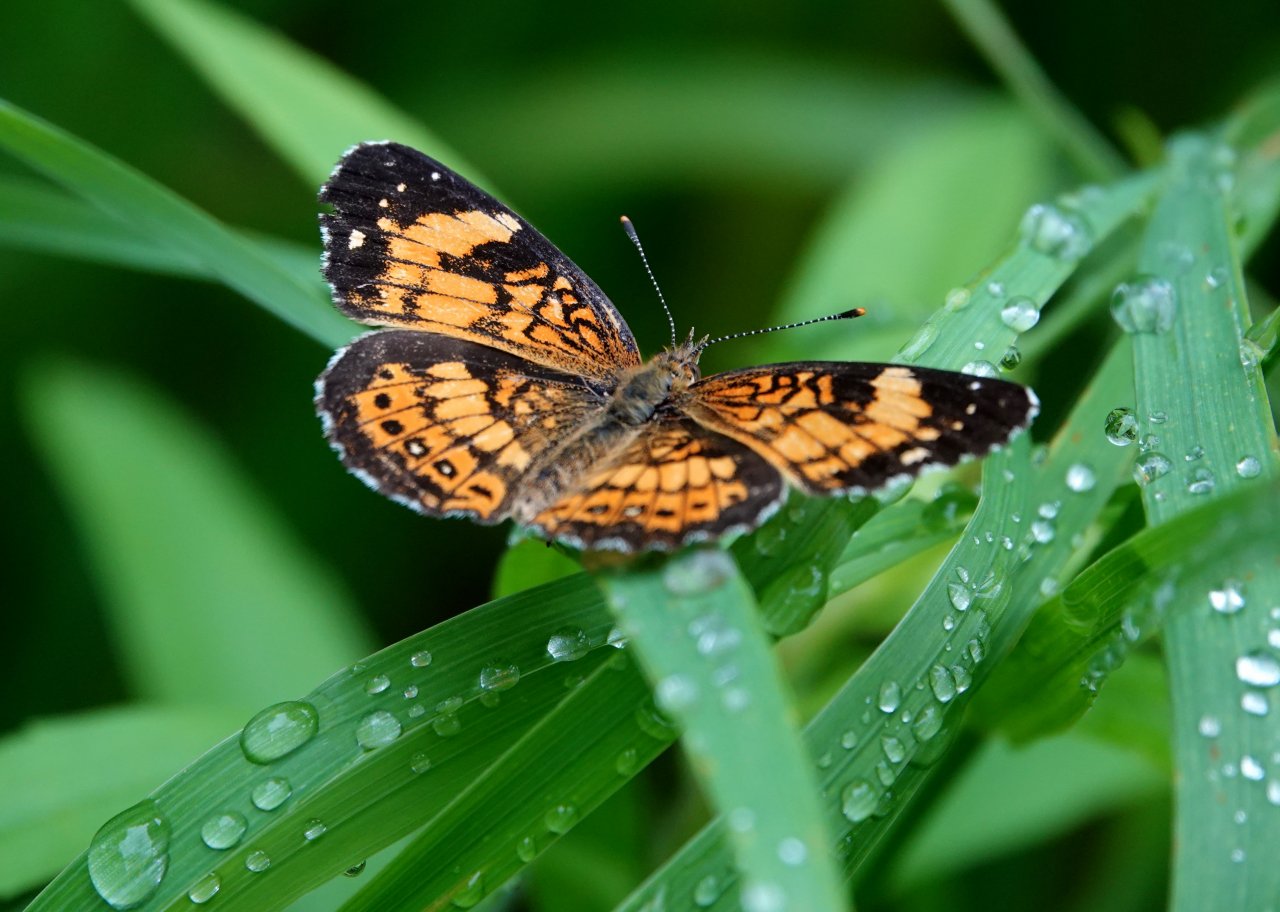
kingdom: Animalia
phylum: Arthropoda
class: Insecta
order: Lepidoptera
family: Nymphalidae
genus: Chlosyne
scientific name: Chlosyne nycteis
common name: Silvery Checkerspot
